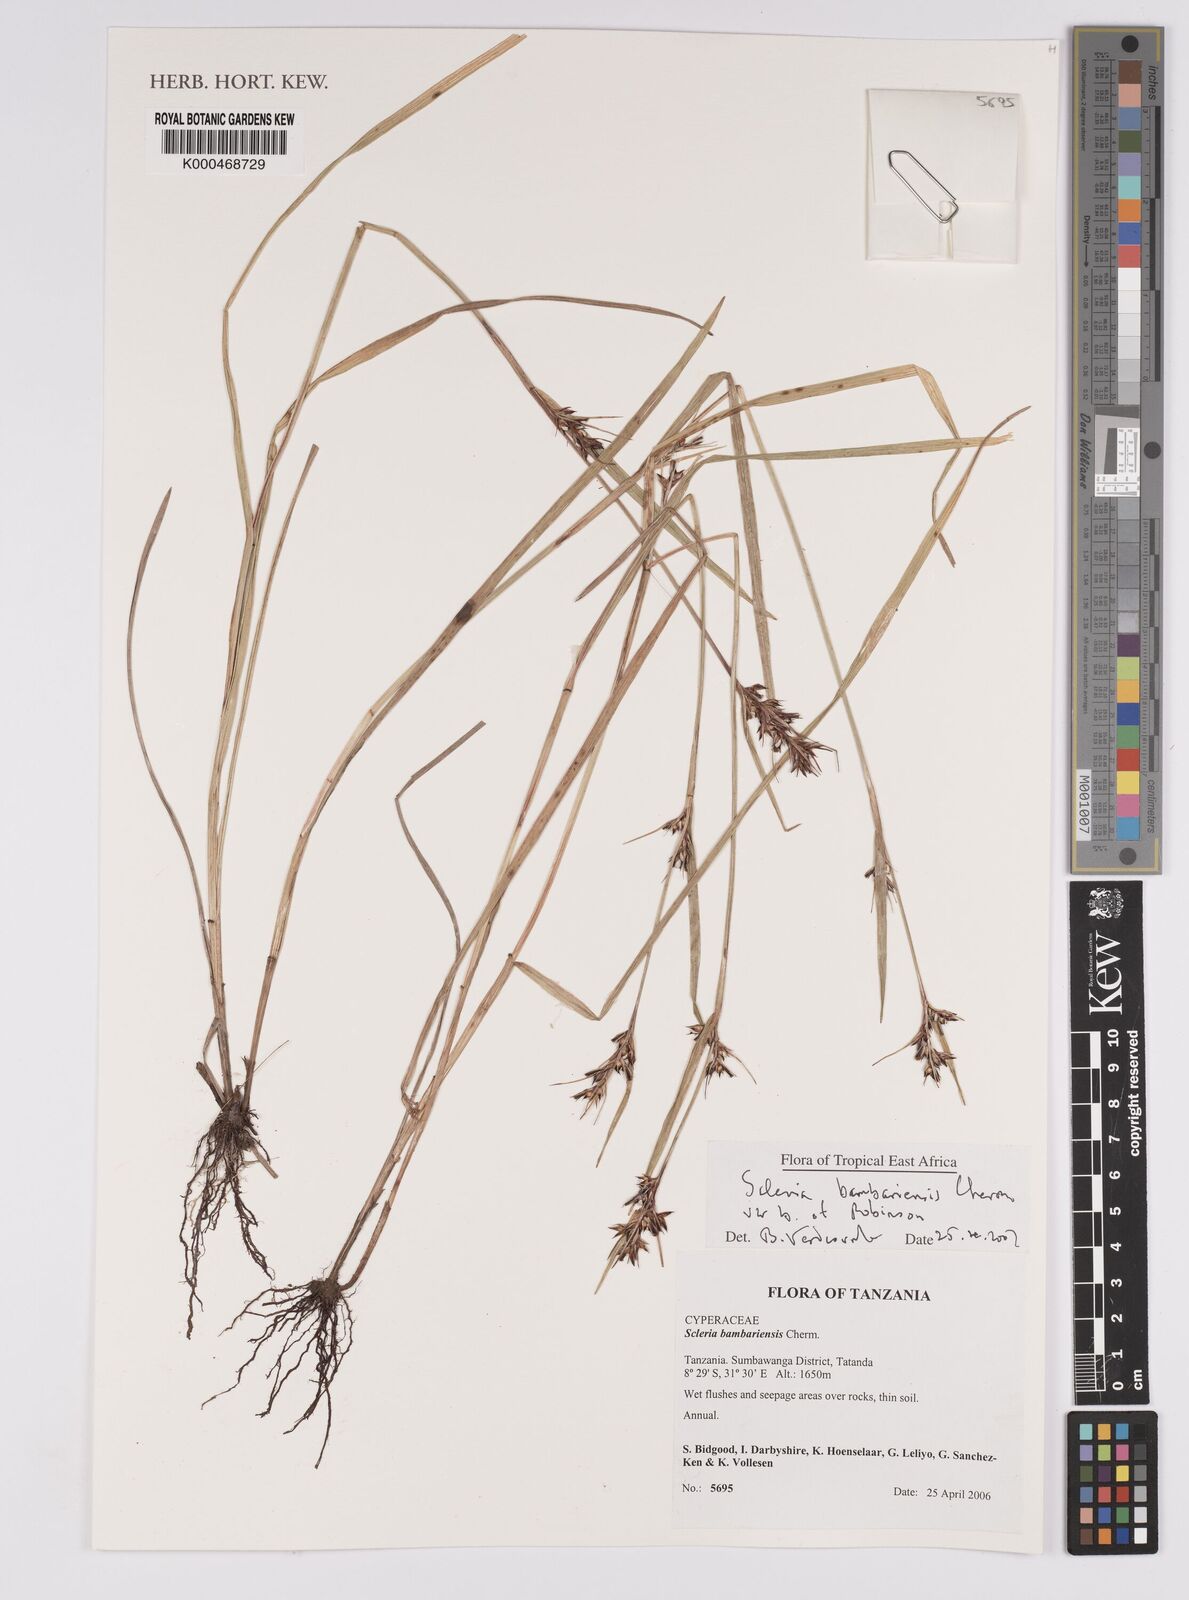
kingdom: Plantae
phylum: Tracheophyta
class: Liliopsida
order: Poales
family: Cyperaceae
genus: Scleria
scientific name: Scleria bambariensis
